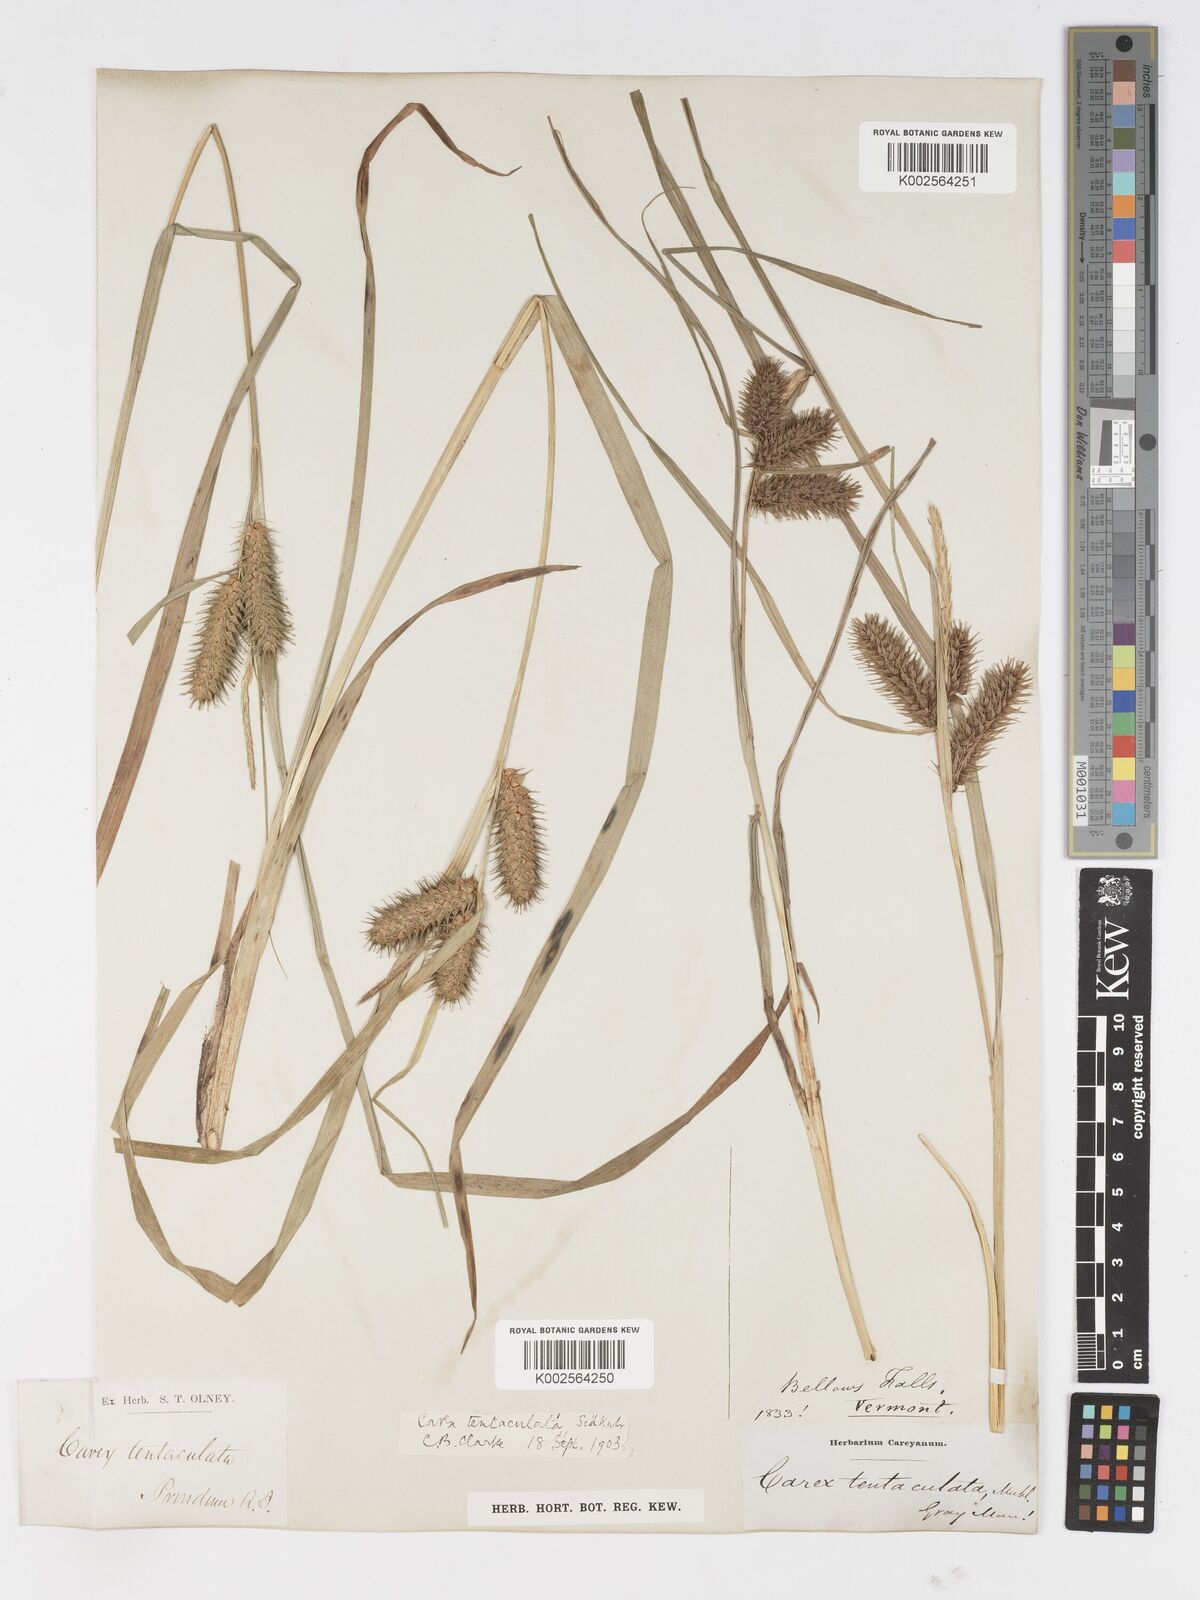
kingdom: Plantae
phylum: Tracheophyta
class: Liliopsida
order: Poales
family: Cyperaceae
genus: Carex
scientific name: Carex lurida
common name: Sallow sedge
